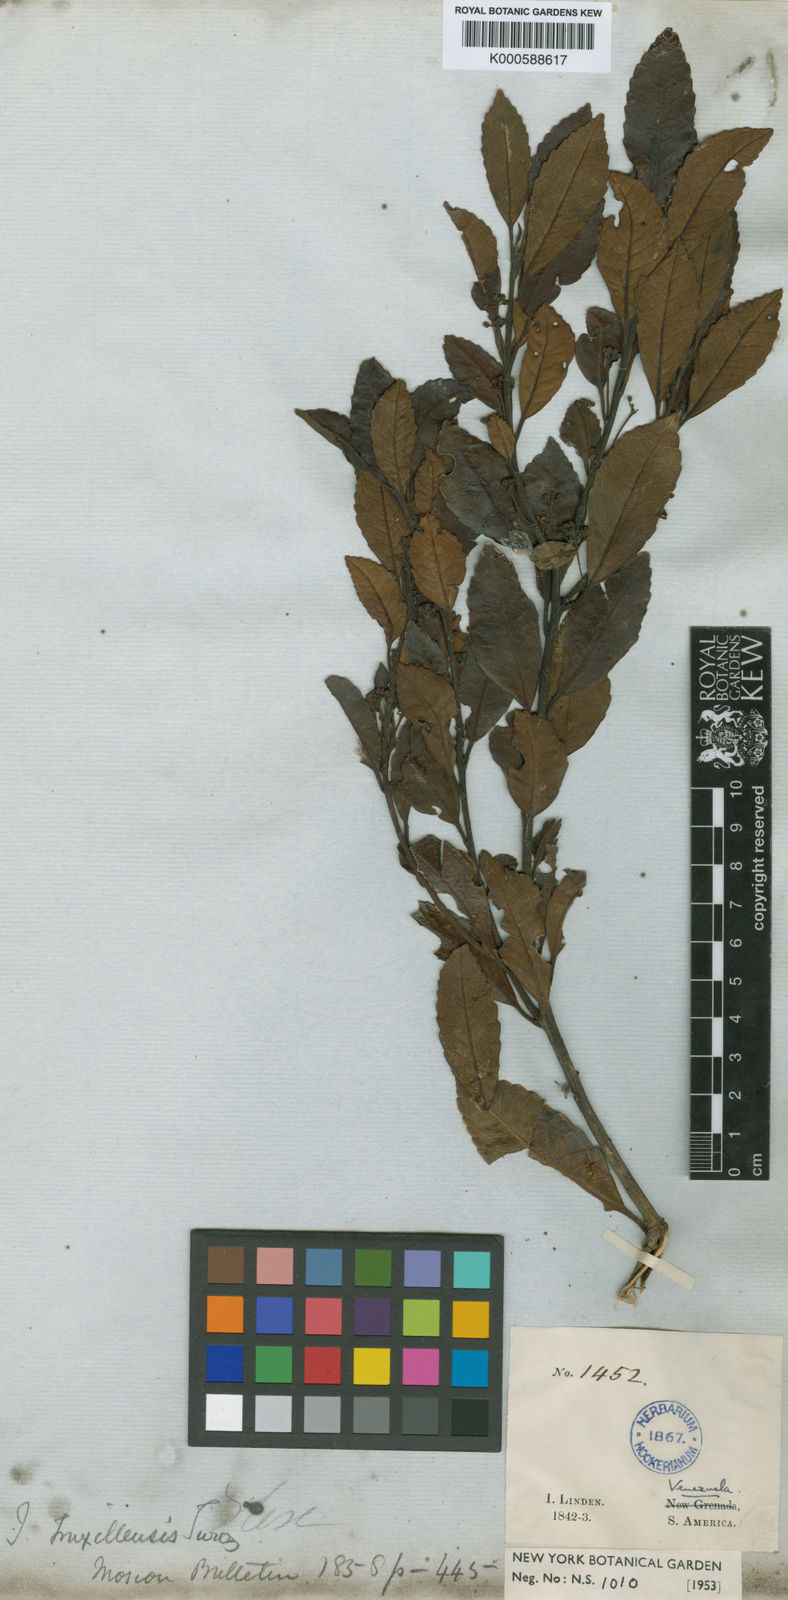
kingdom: Plantae
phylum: Tracheophyta
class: Magnoliopsida
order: Aquifoliales
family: Aquifoliaceae
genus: Ilex
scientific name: Ilex truxillensis
